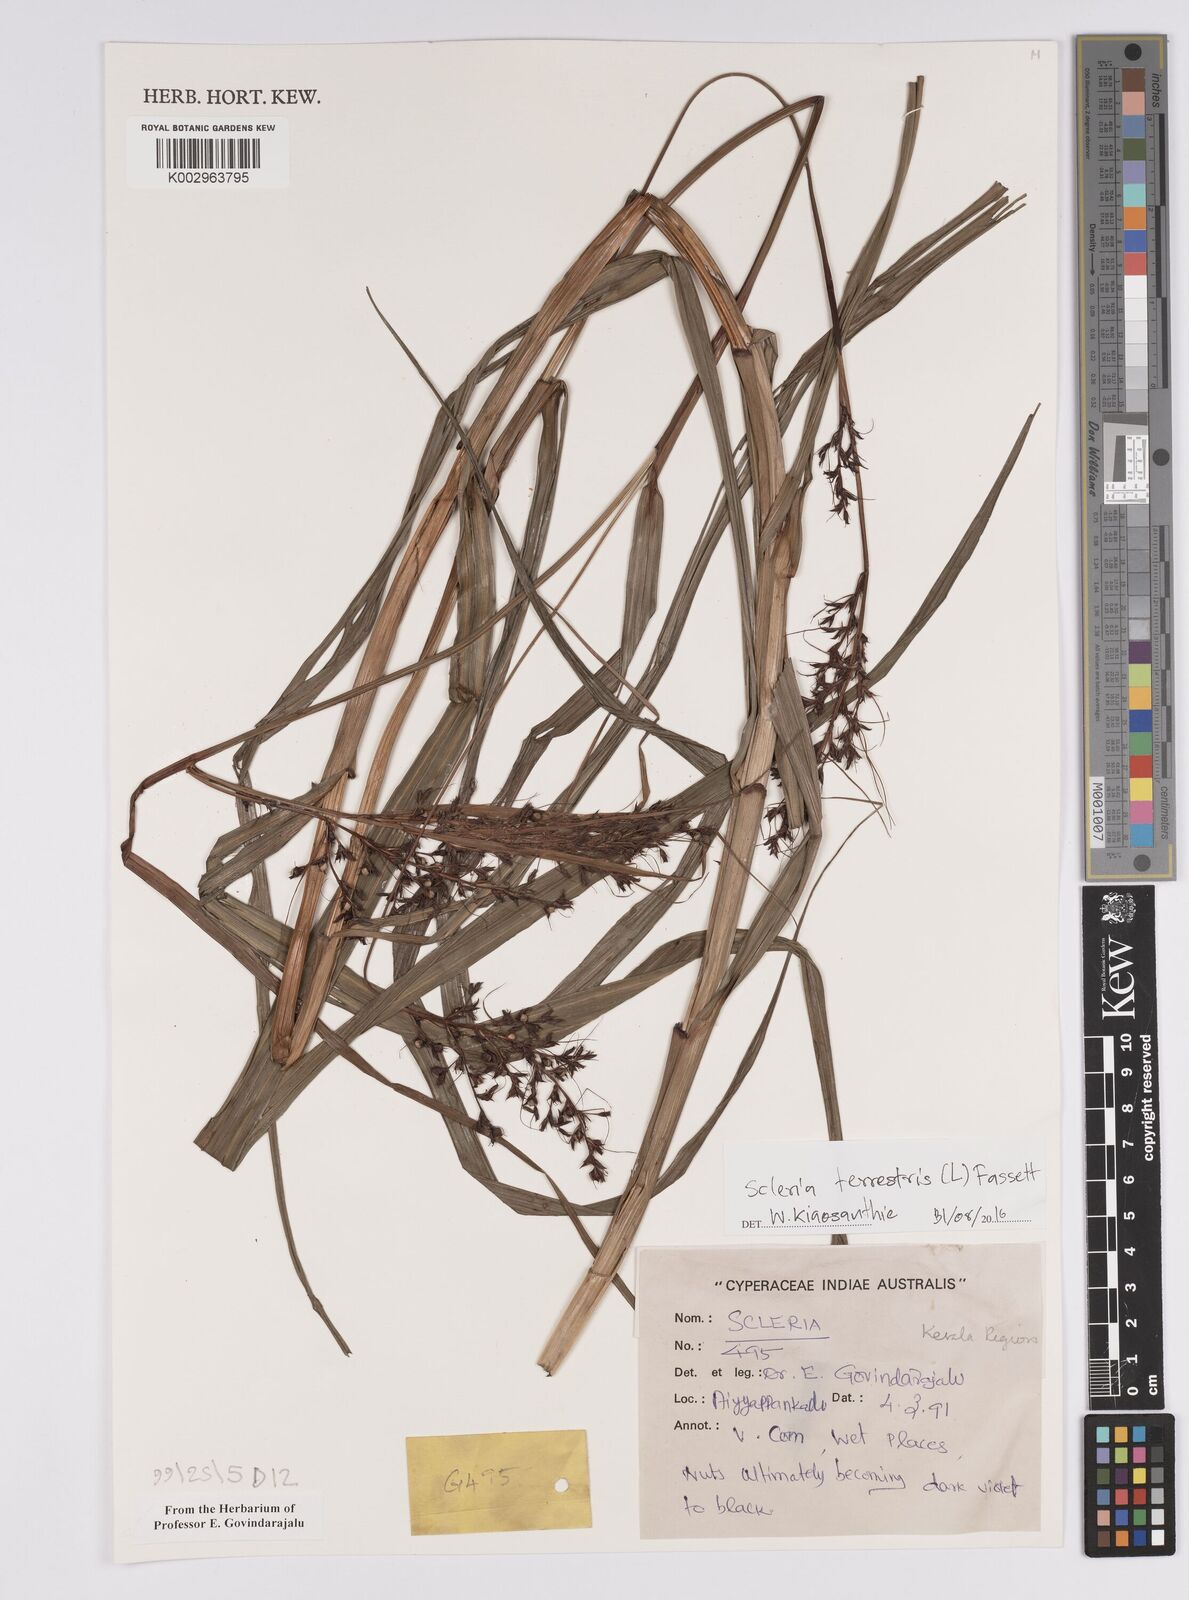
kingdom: Plantae
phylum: Tracheophyta
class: Liliopsida
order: Poales
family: Cyperaceae
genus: Scleria
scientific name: Scleria terrestris
